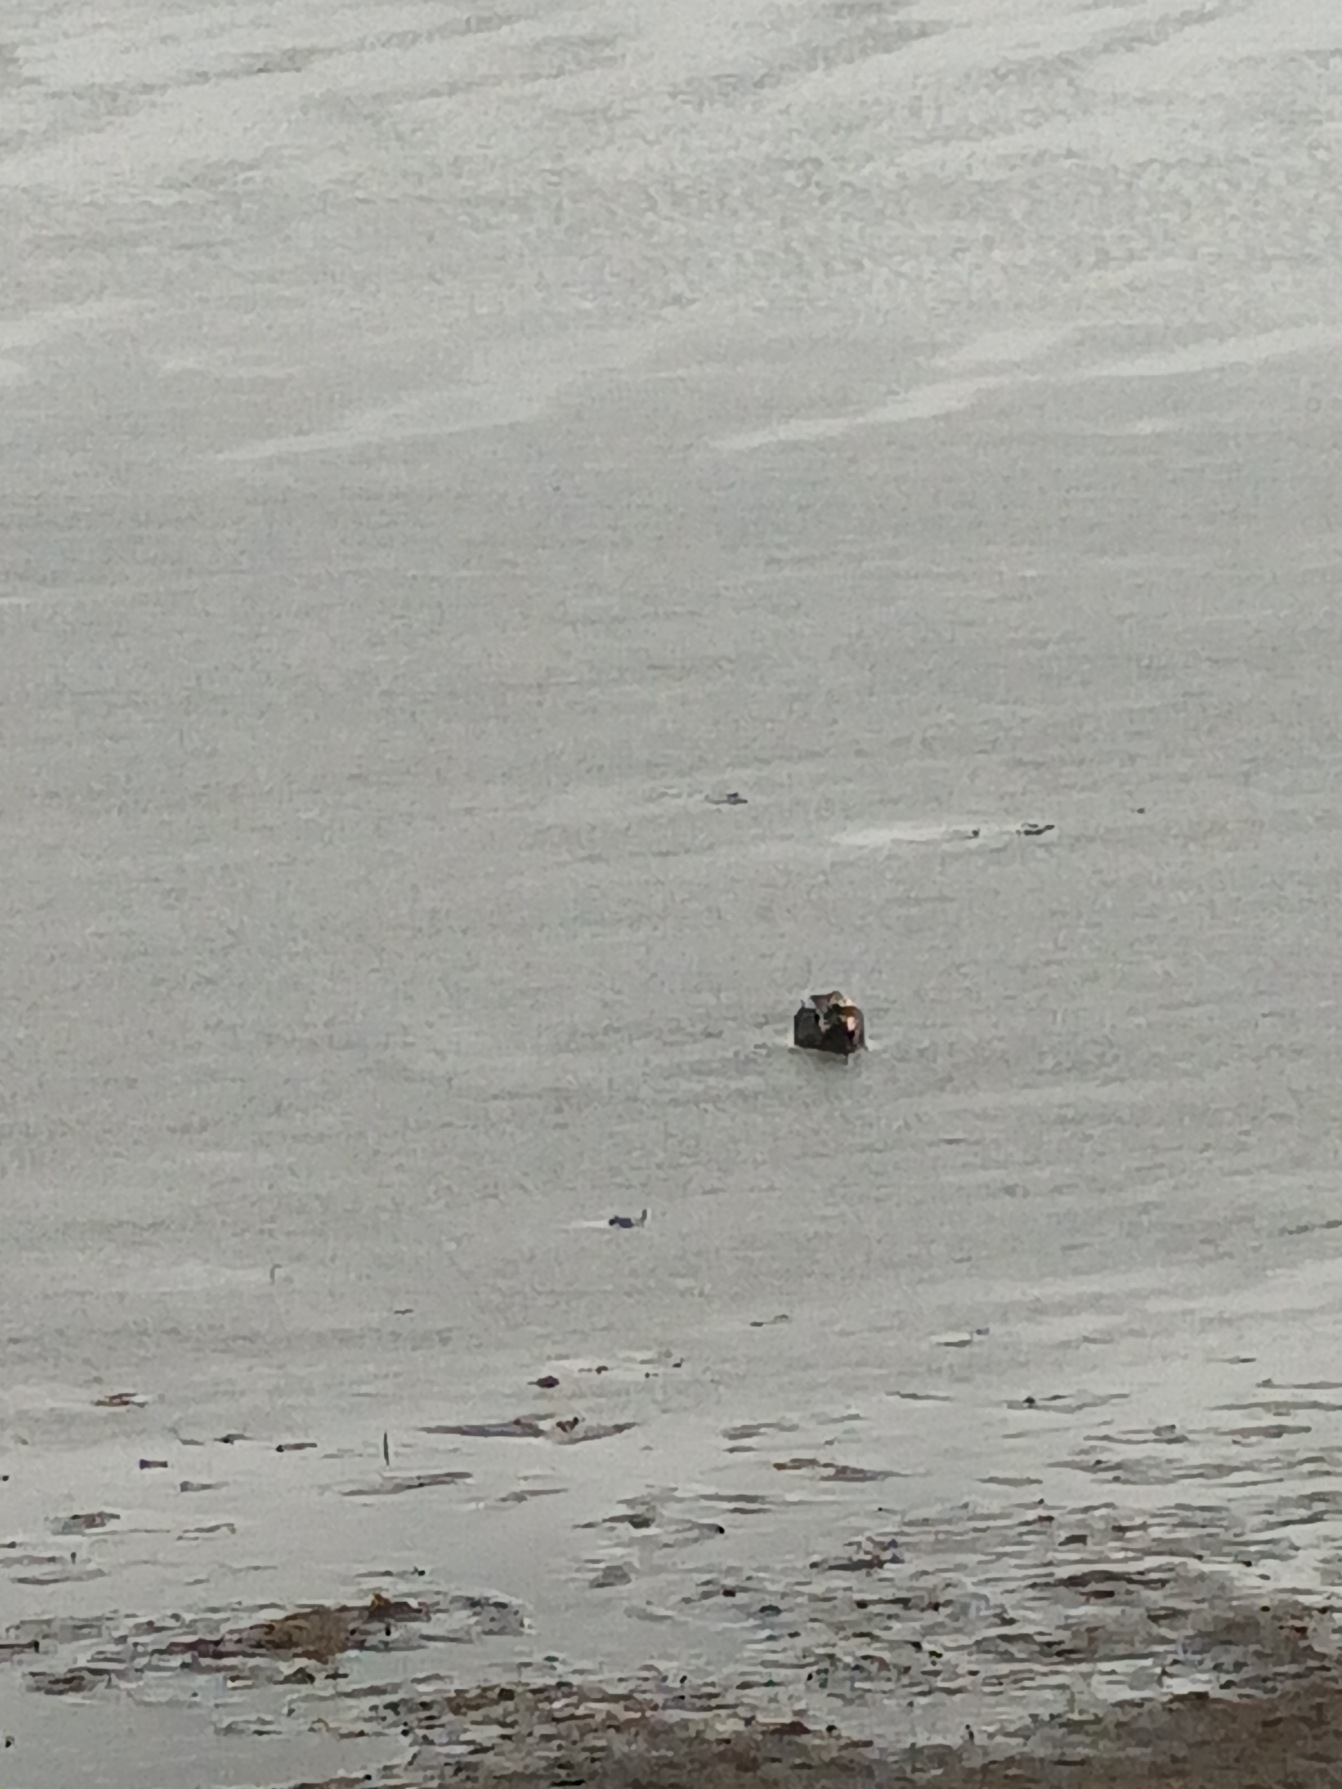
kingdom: Animalia
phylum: Chordata
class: Aves
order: Anseriformes
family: Anatidae
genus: Anas
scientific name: Anas crecca
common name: Krikand
